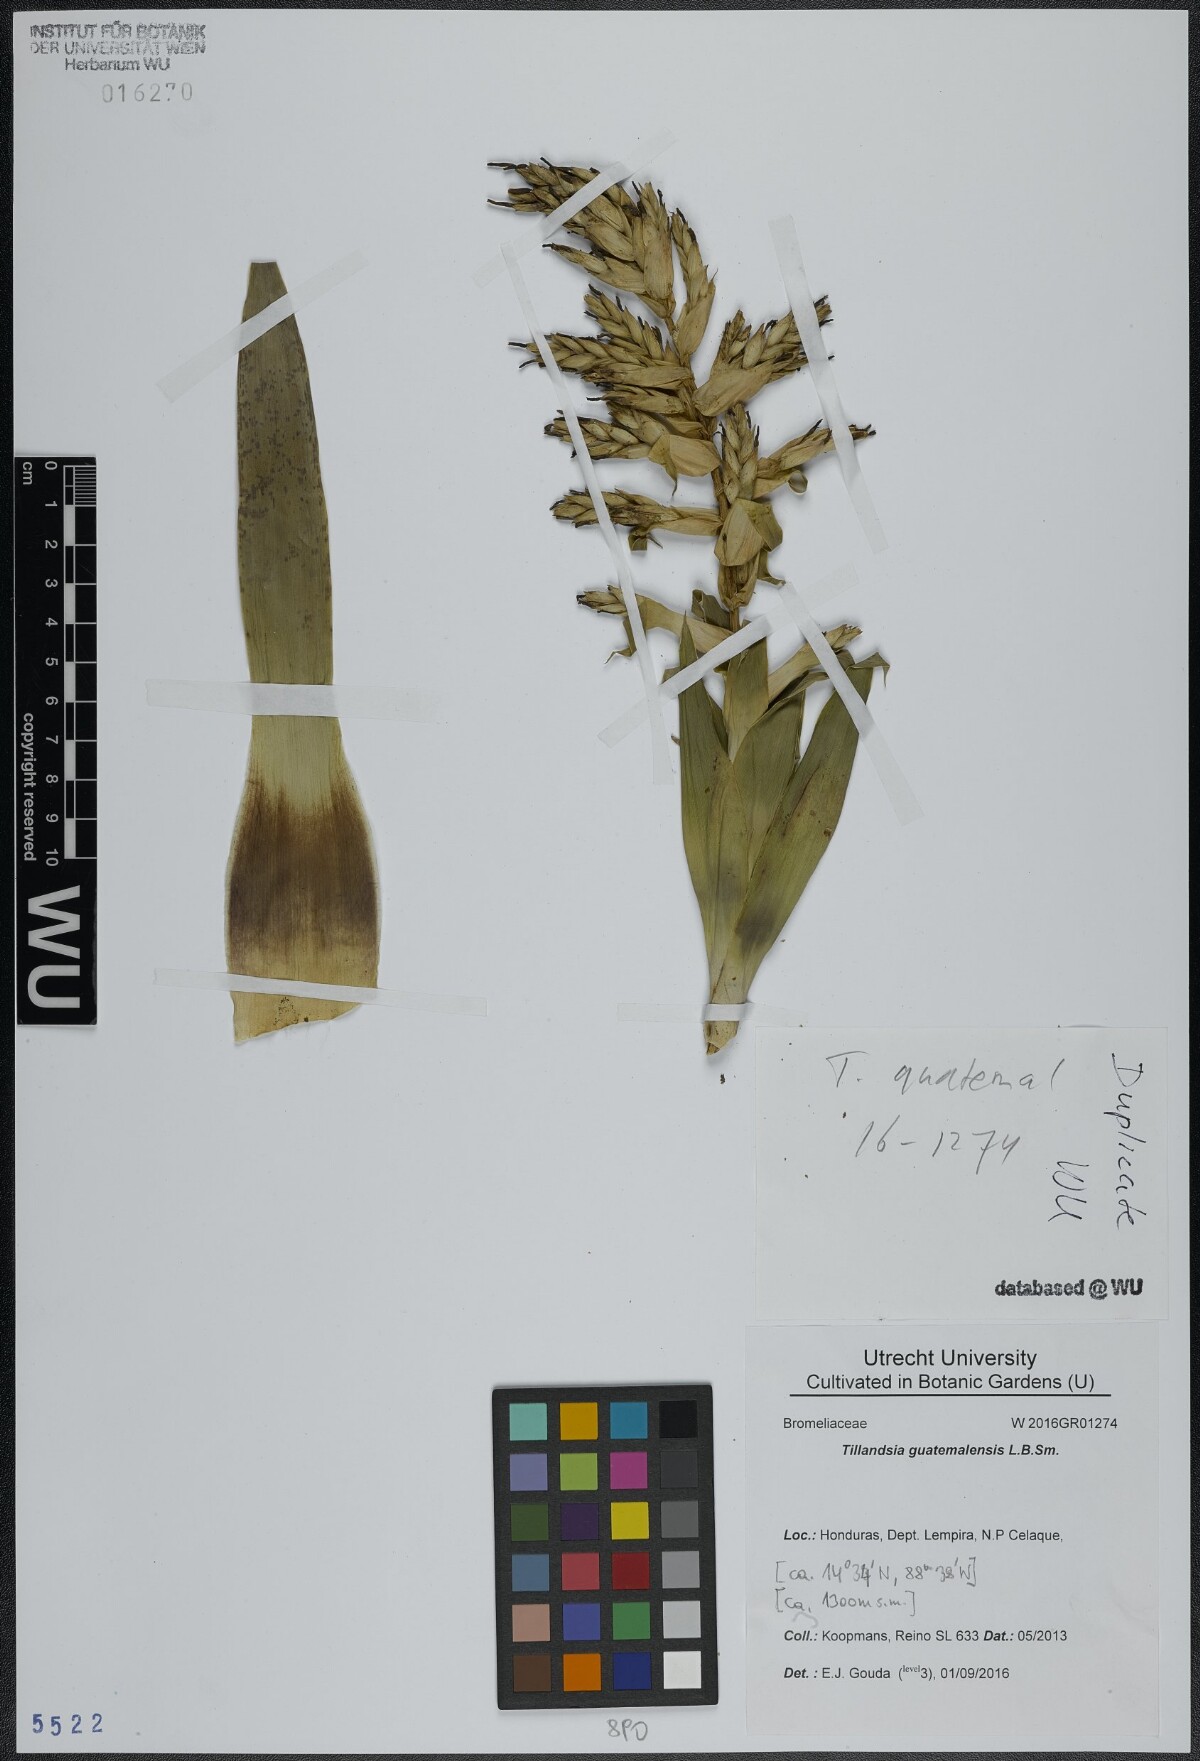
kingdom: Plantae
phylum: Tracheophyta
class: Liliopsida
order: Poales
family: Bromeliaceae
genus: Tillandsia
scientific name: Tillandsia guatemalensis
